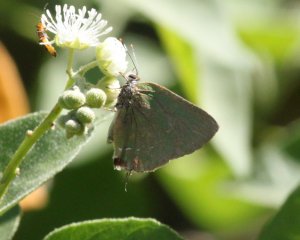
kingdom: Animalia
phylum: Arthropoda
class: Insecta
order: Lepidoptera
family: Lycaenidae
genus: Thecla
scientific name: Thecla herodotus
